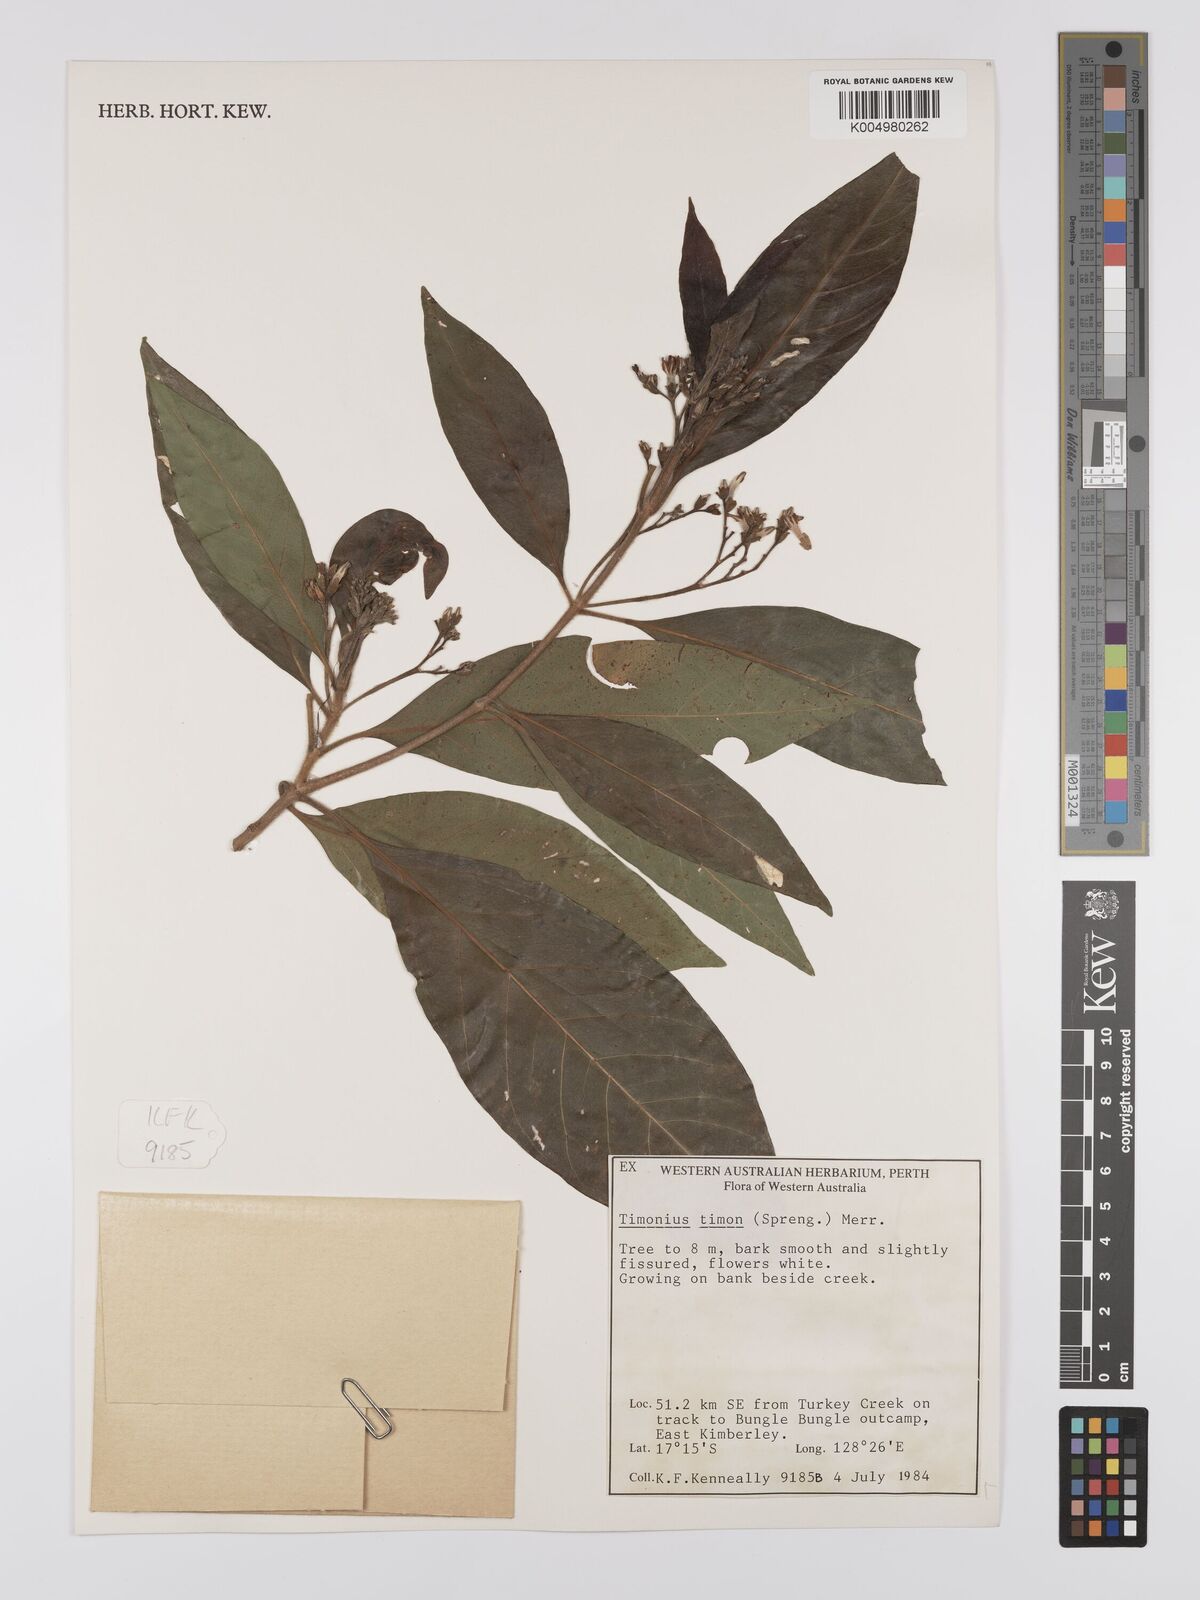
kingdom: Plantae
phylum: Tracheophyta
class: Magnoliopsida
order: Gentianales
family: Rubiaceae
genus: Timonius
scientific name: Timonius timon
